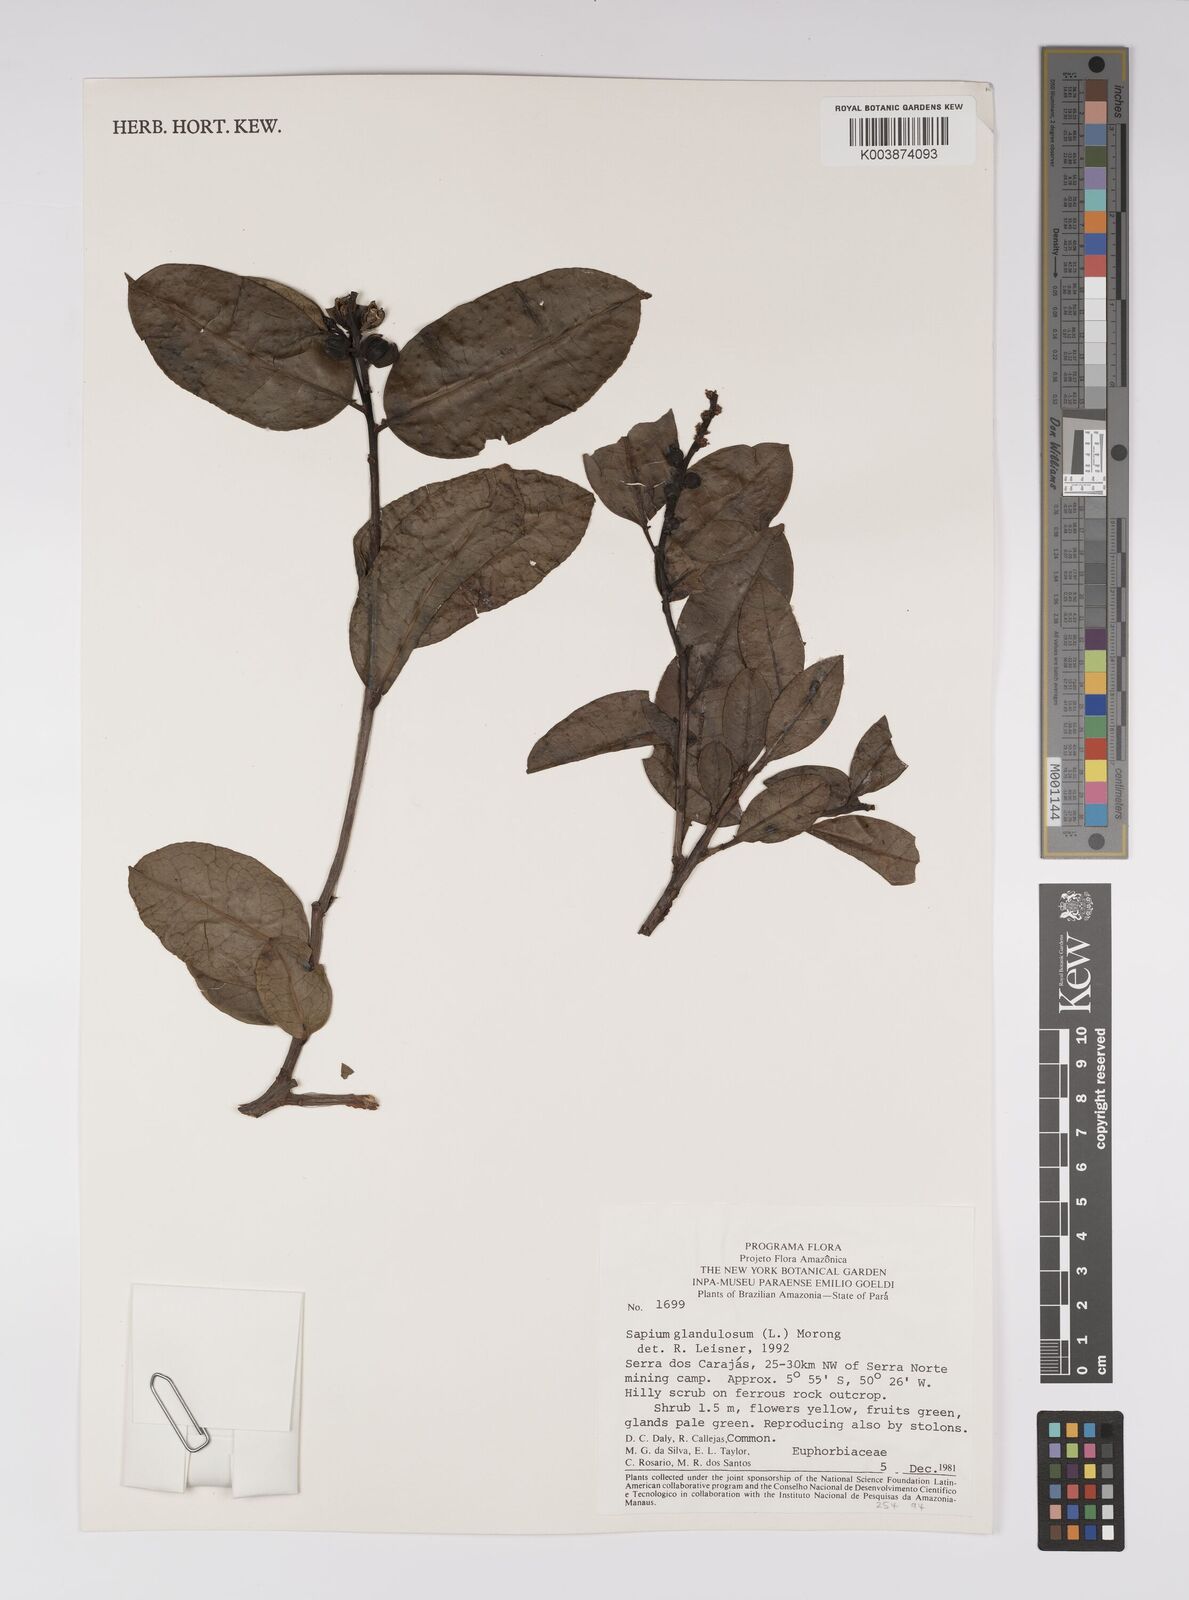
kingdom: Plantae
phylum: Tracheophyta
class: Magnoliopsida
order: Malpighiales
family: Euphorbiaceae
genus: Sapium
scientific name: Sapium glandulosum
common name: Milktree
